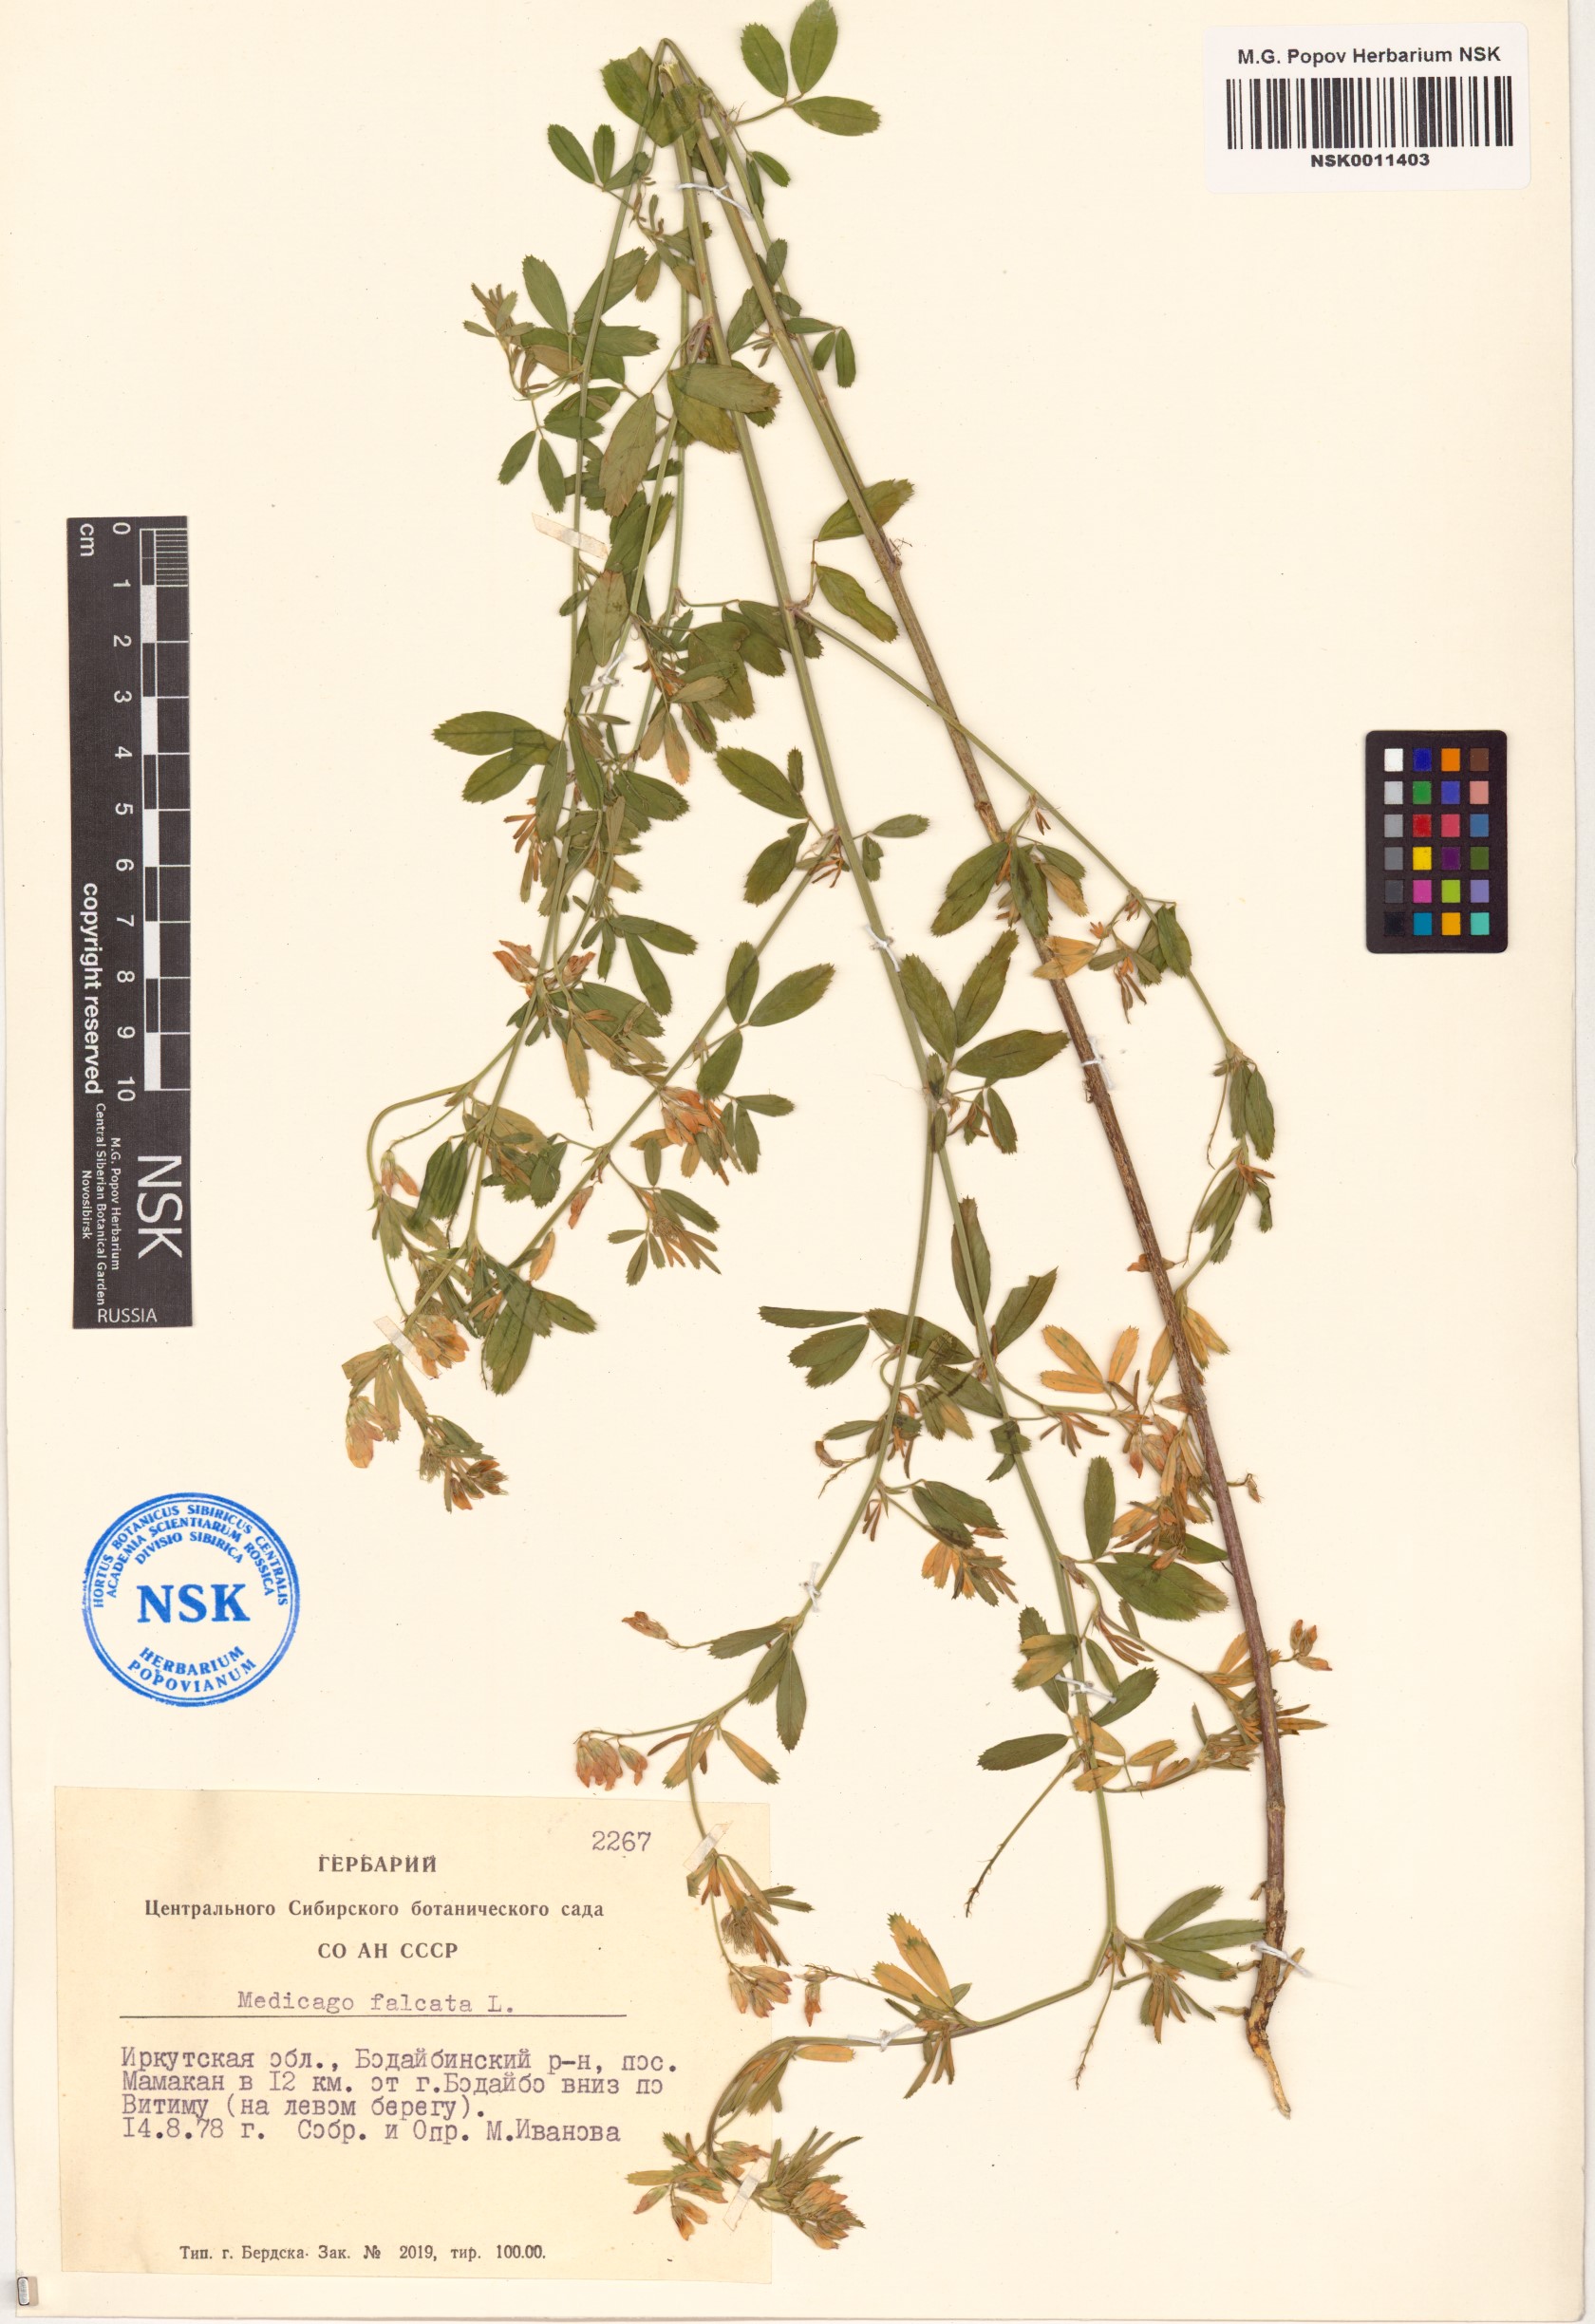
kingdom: Plantae
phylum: Tracheophyta
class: Magnoliopsida
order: Fabales
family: Fabaceae
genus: Medicago
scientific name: Medicago falcata
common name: Sickle medick
